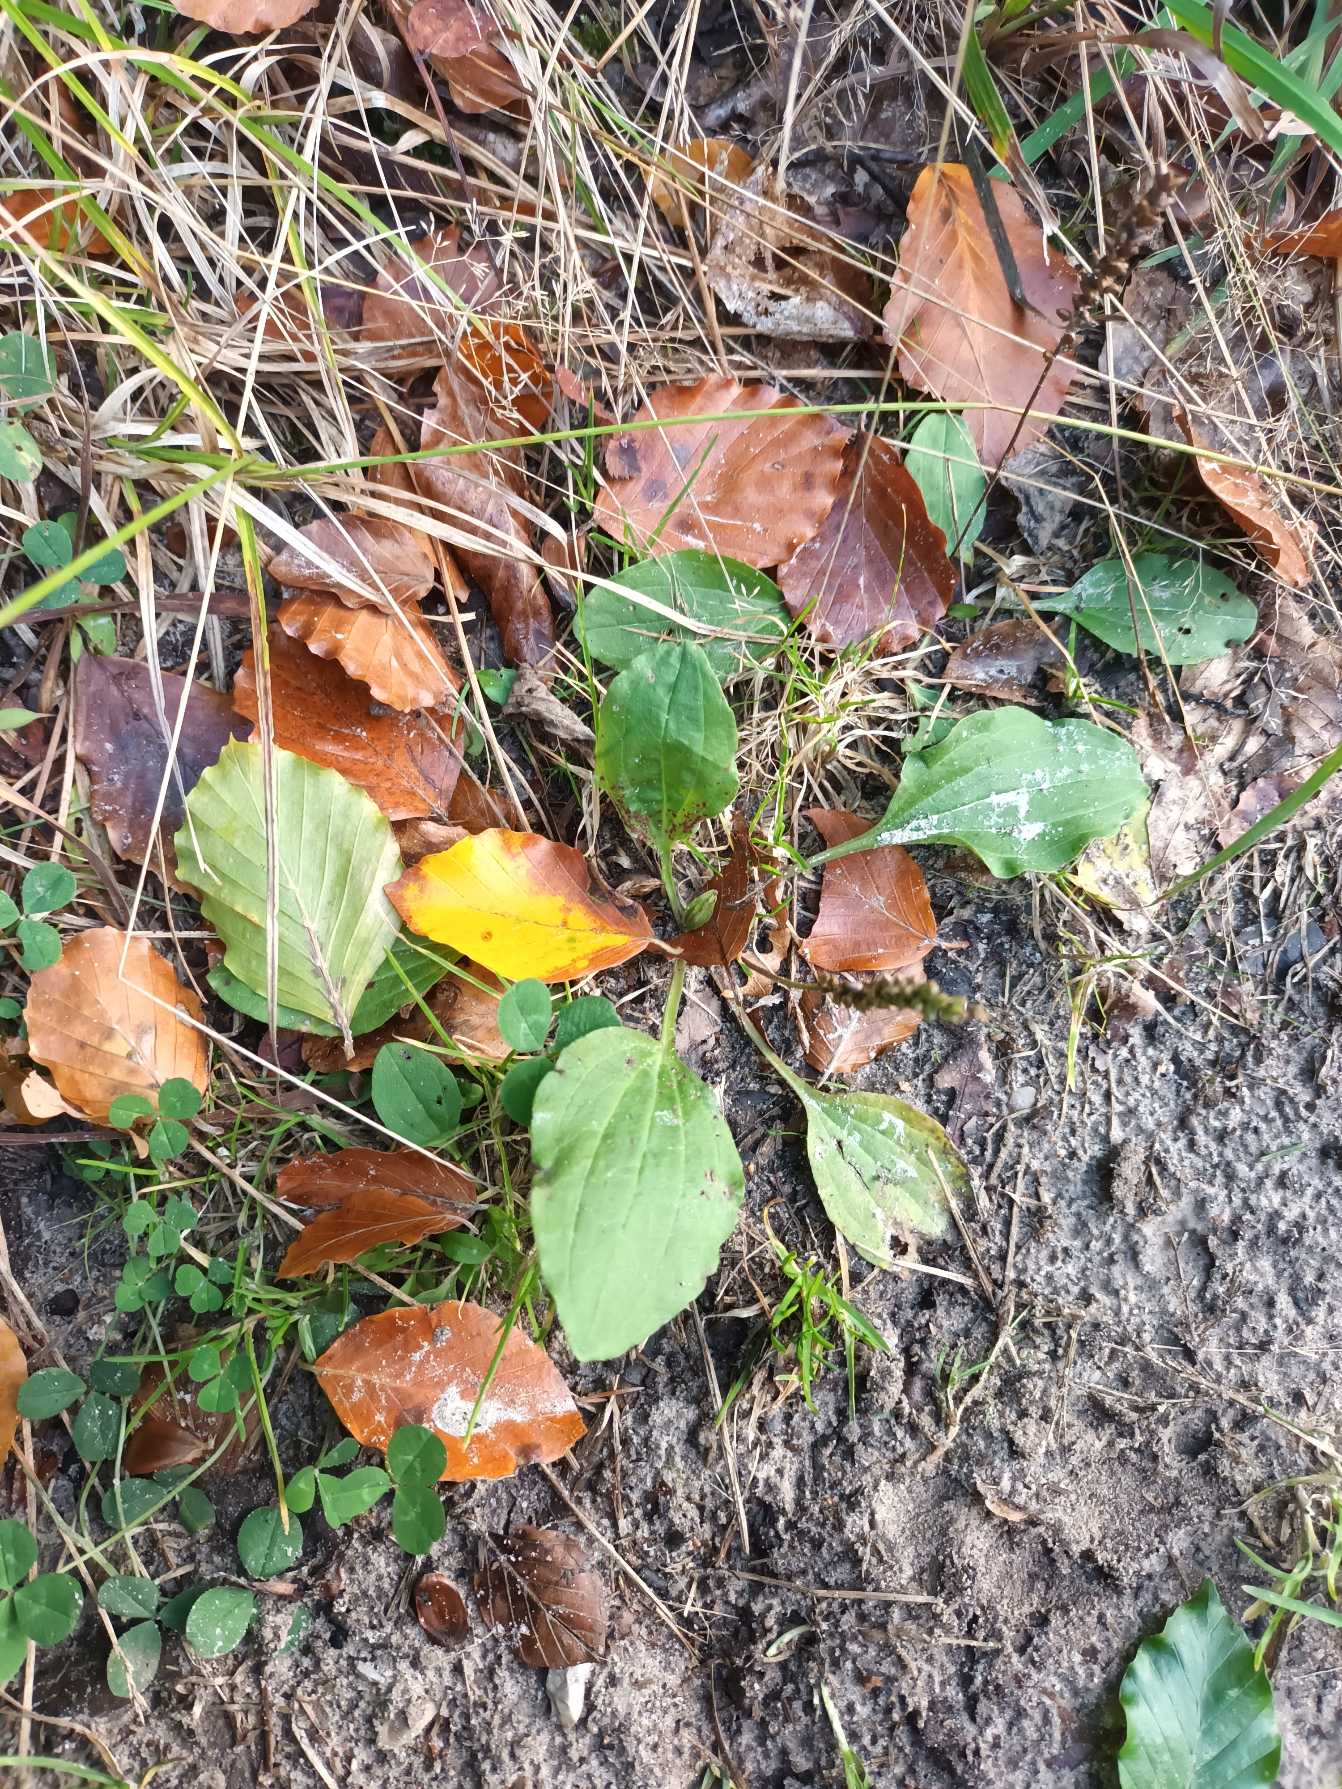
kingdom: Plantae
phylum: Tracheophyta
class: Magnoliopsida
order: Lamiales
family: Plantaginaceae
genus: Plantago
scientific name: Plantago major
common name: Glat vejbred
